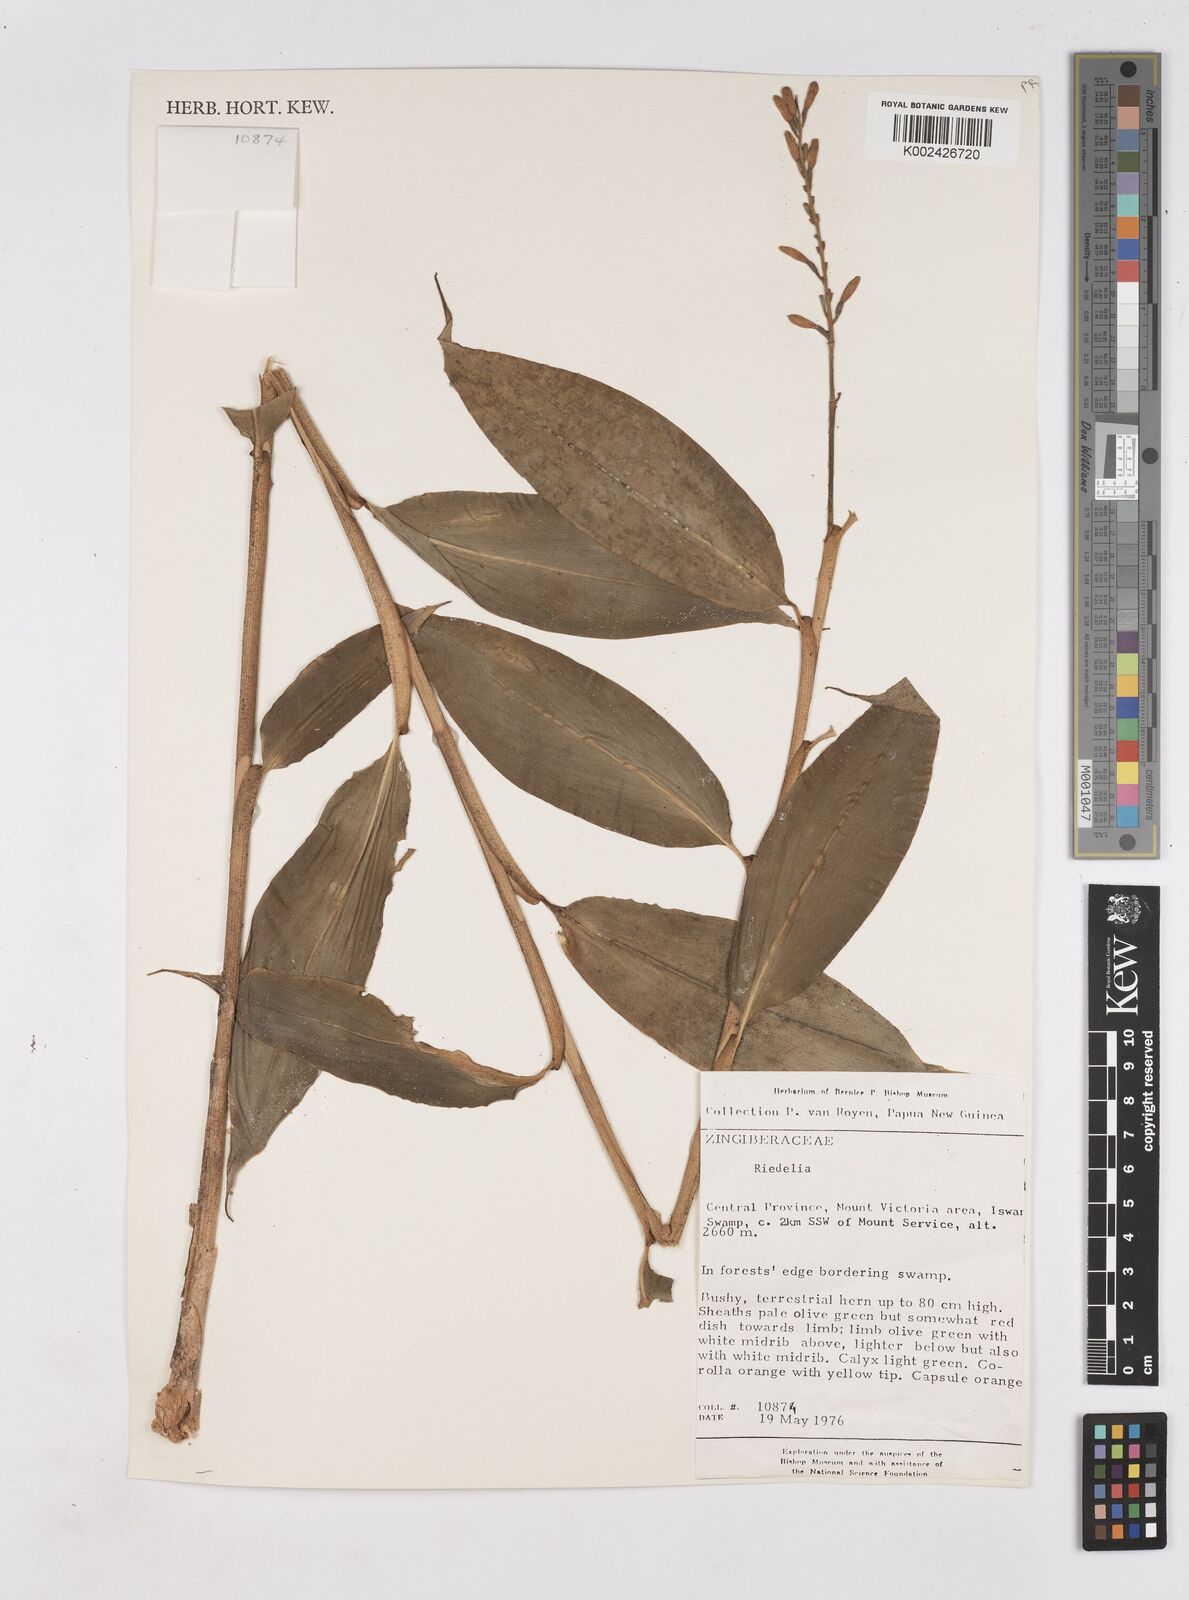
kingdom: Plantae
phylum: Tracheophyta
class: Liliopsida
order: Zingiberales
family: Zingiberaceae
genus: Riedelia
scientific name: Riedelia
